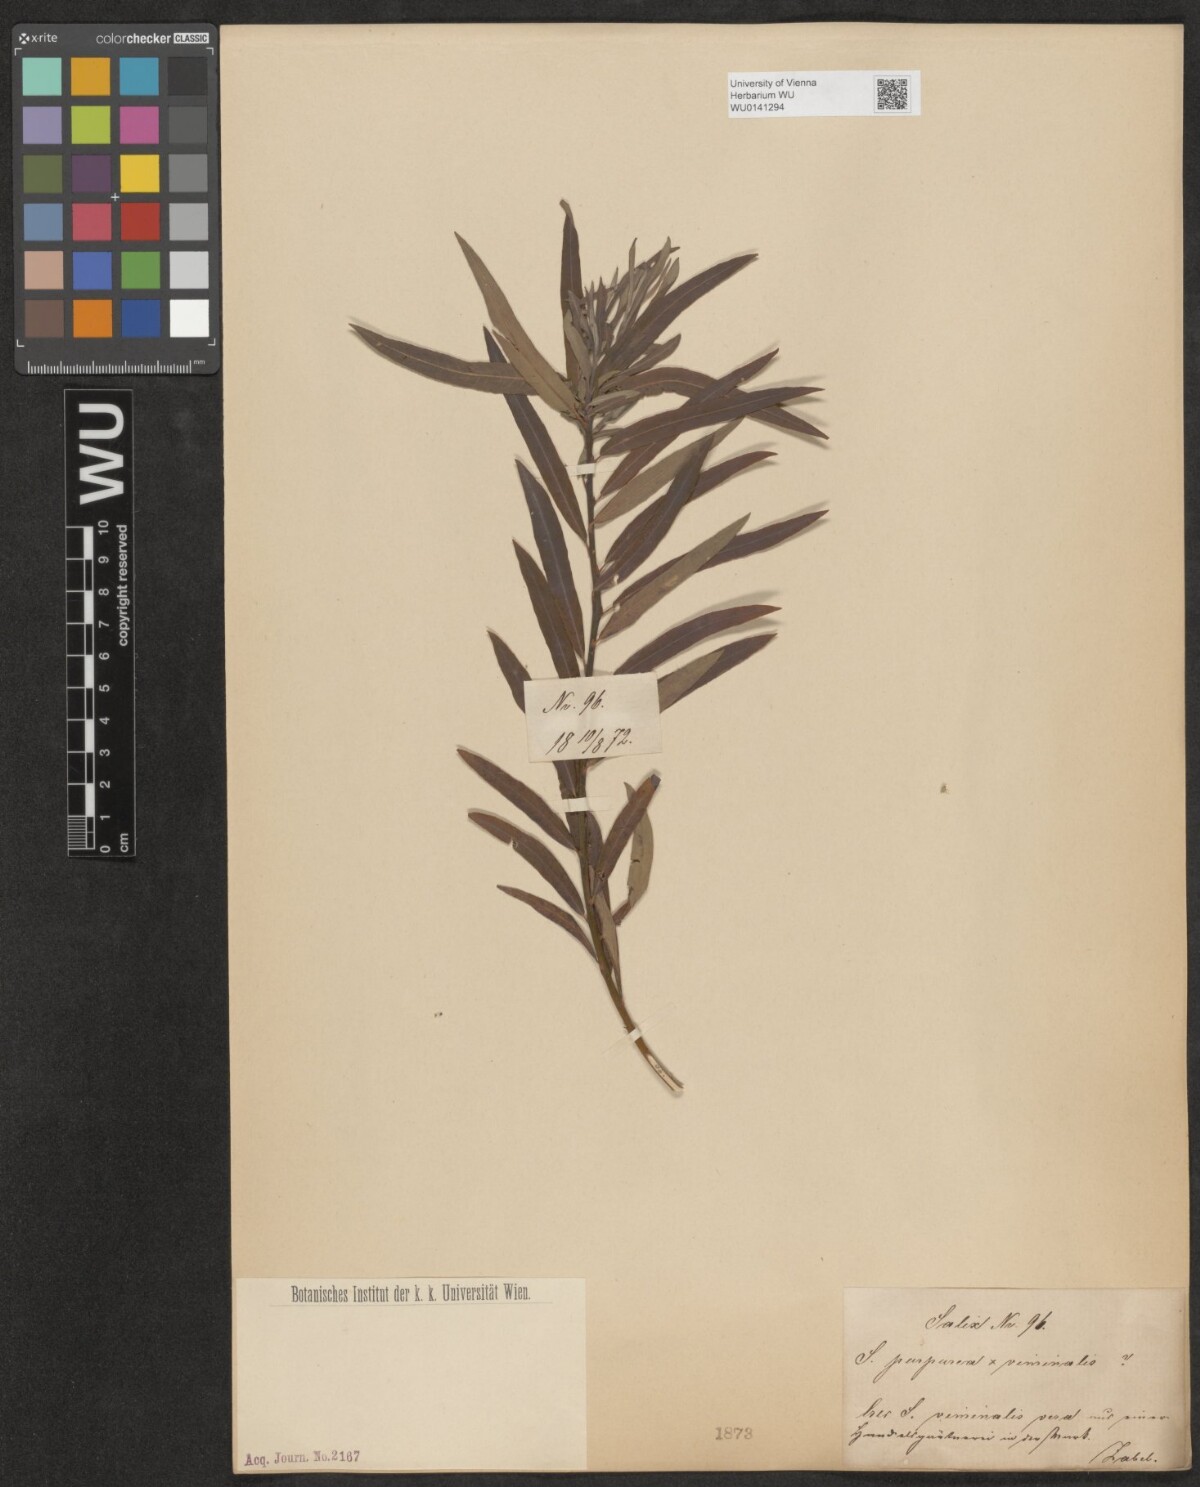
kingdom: Plantae
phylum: Tracheophyta
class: Magnoliopsida
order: Malpighiales
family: Salicaceae
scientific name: Salicaceae
